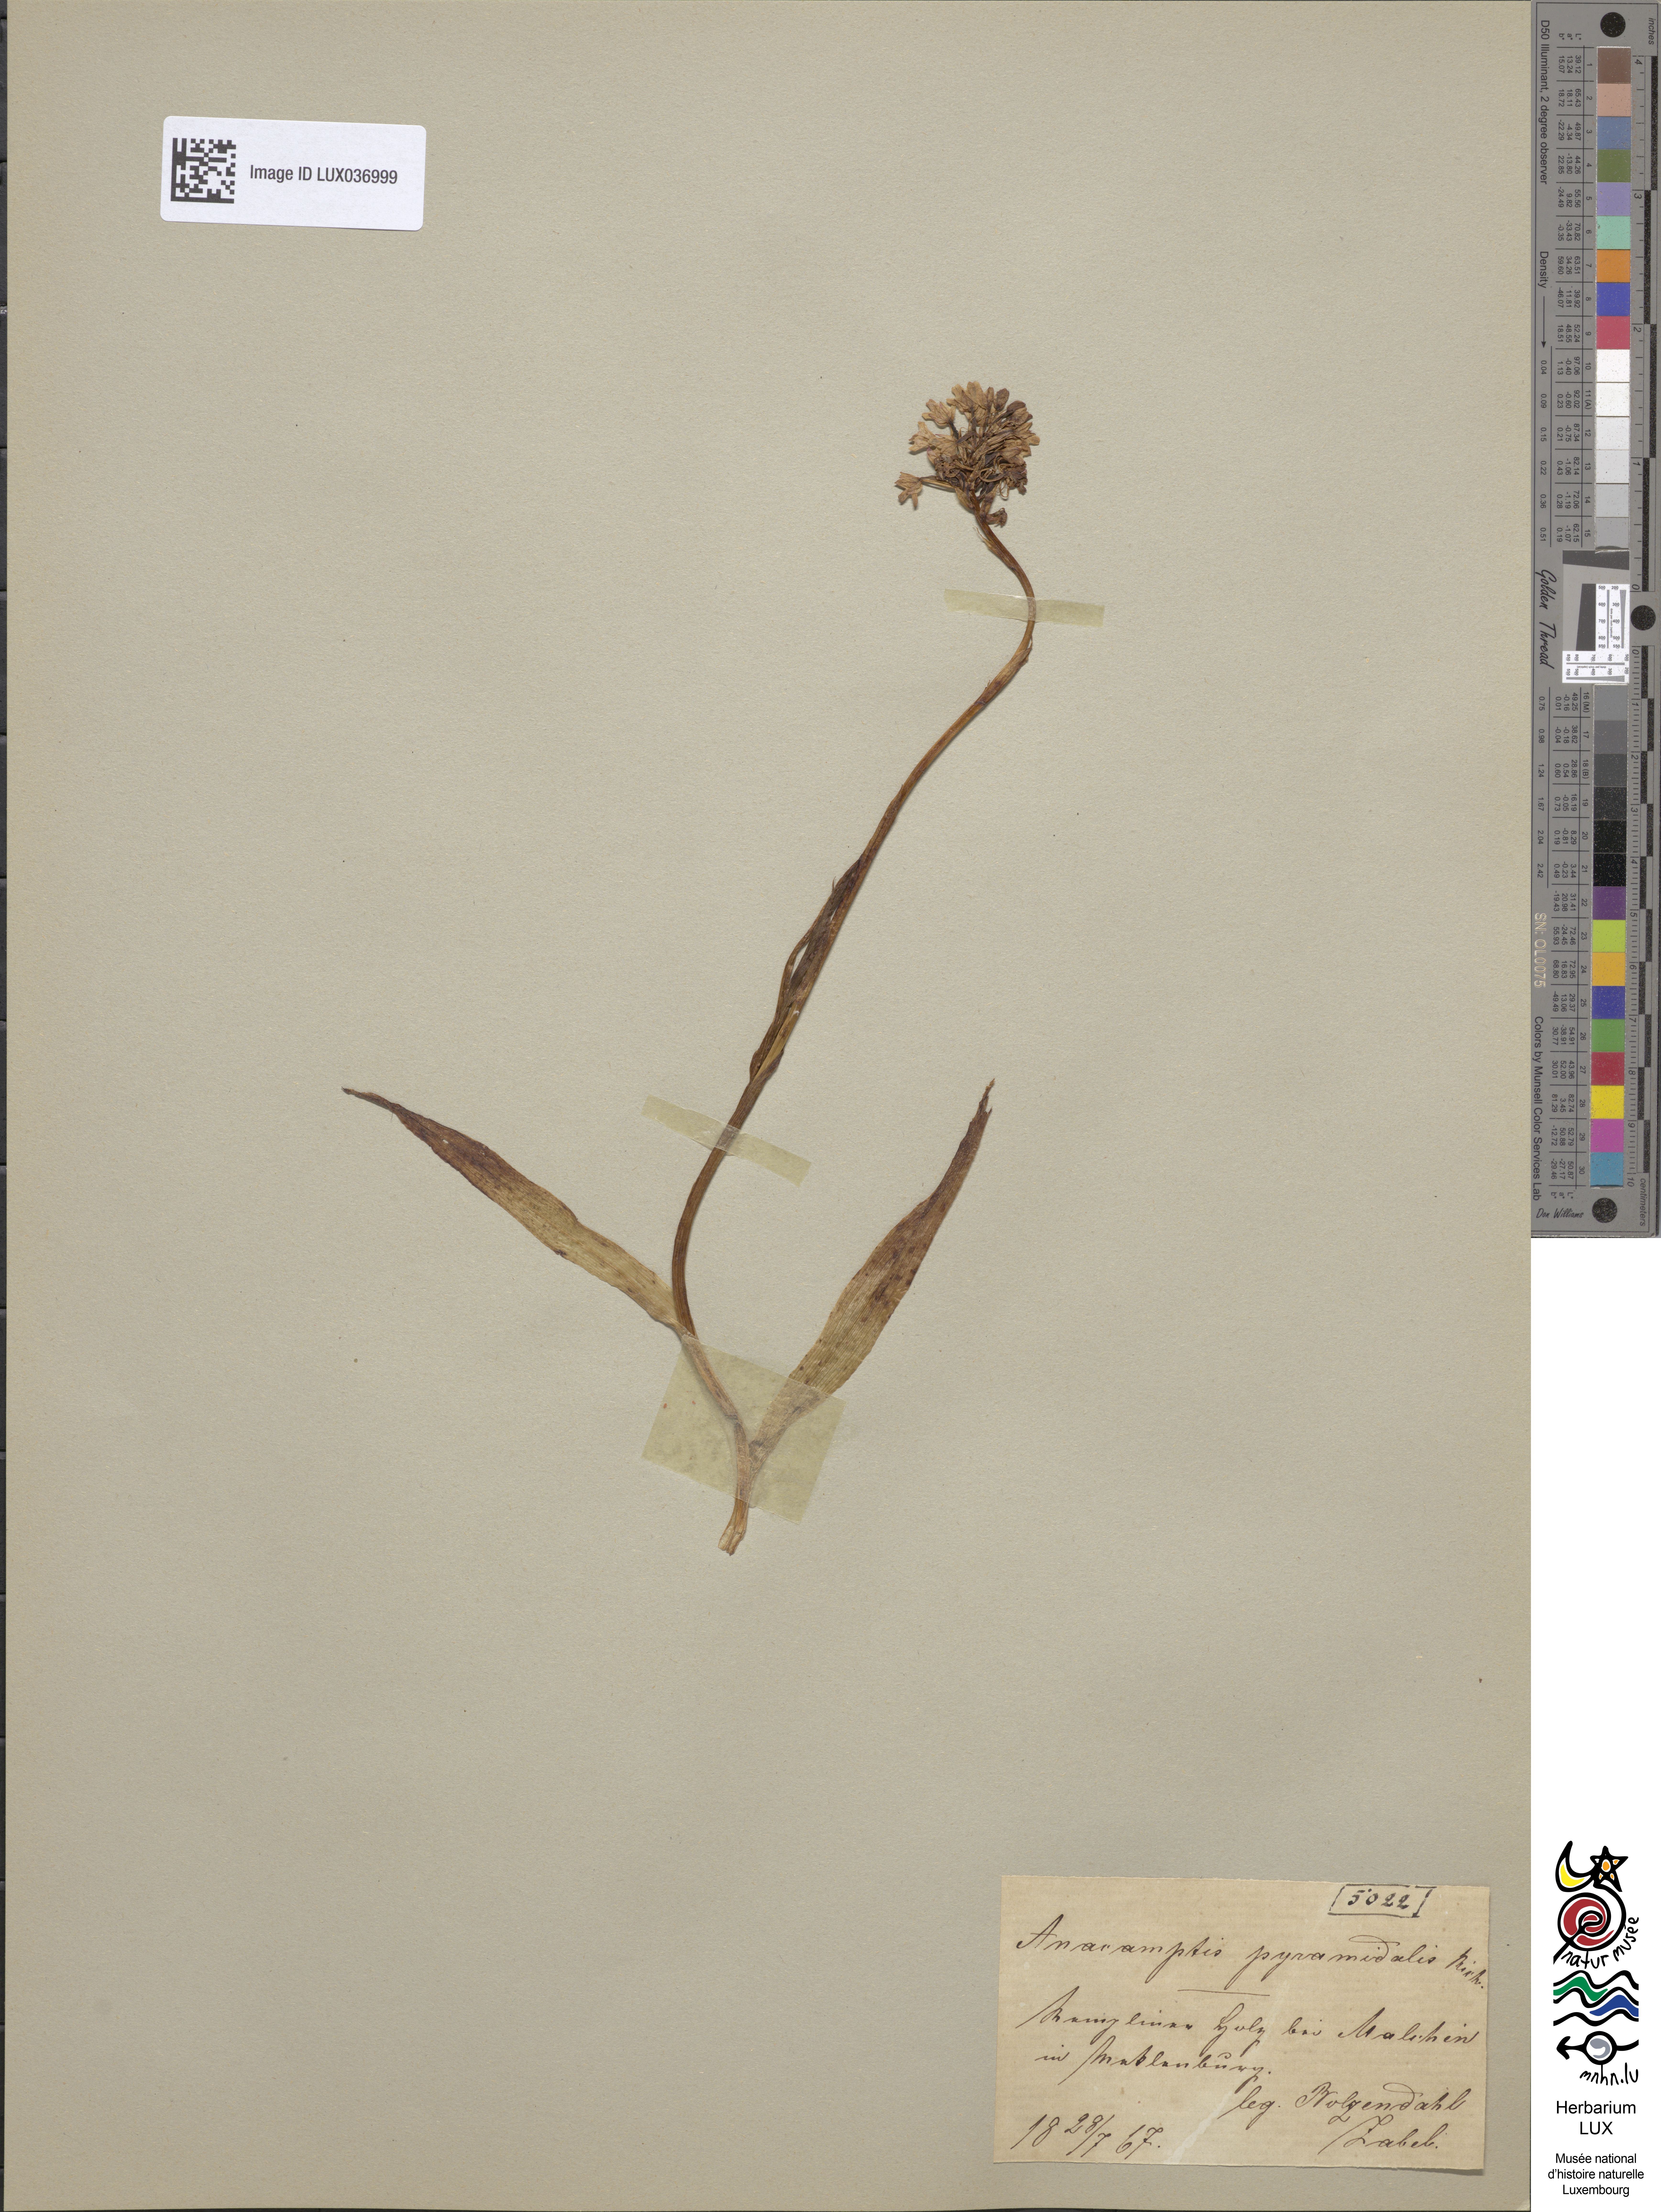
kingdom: Plantae
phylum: Tracheophyta
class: Liliopsida
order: Asparagales
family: Orchidaceae
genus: Anacamptis
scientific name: Anacamptis pyramidalis
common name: Pyramidal orchid
